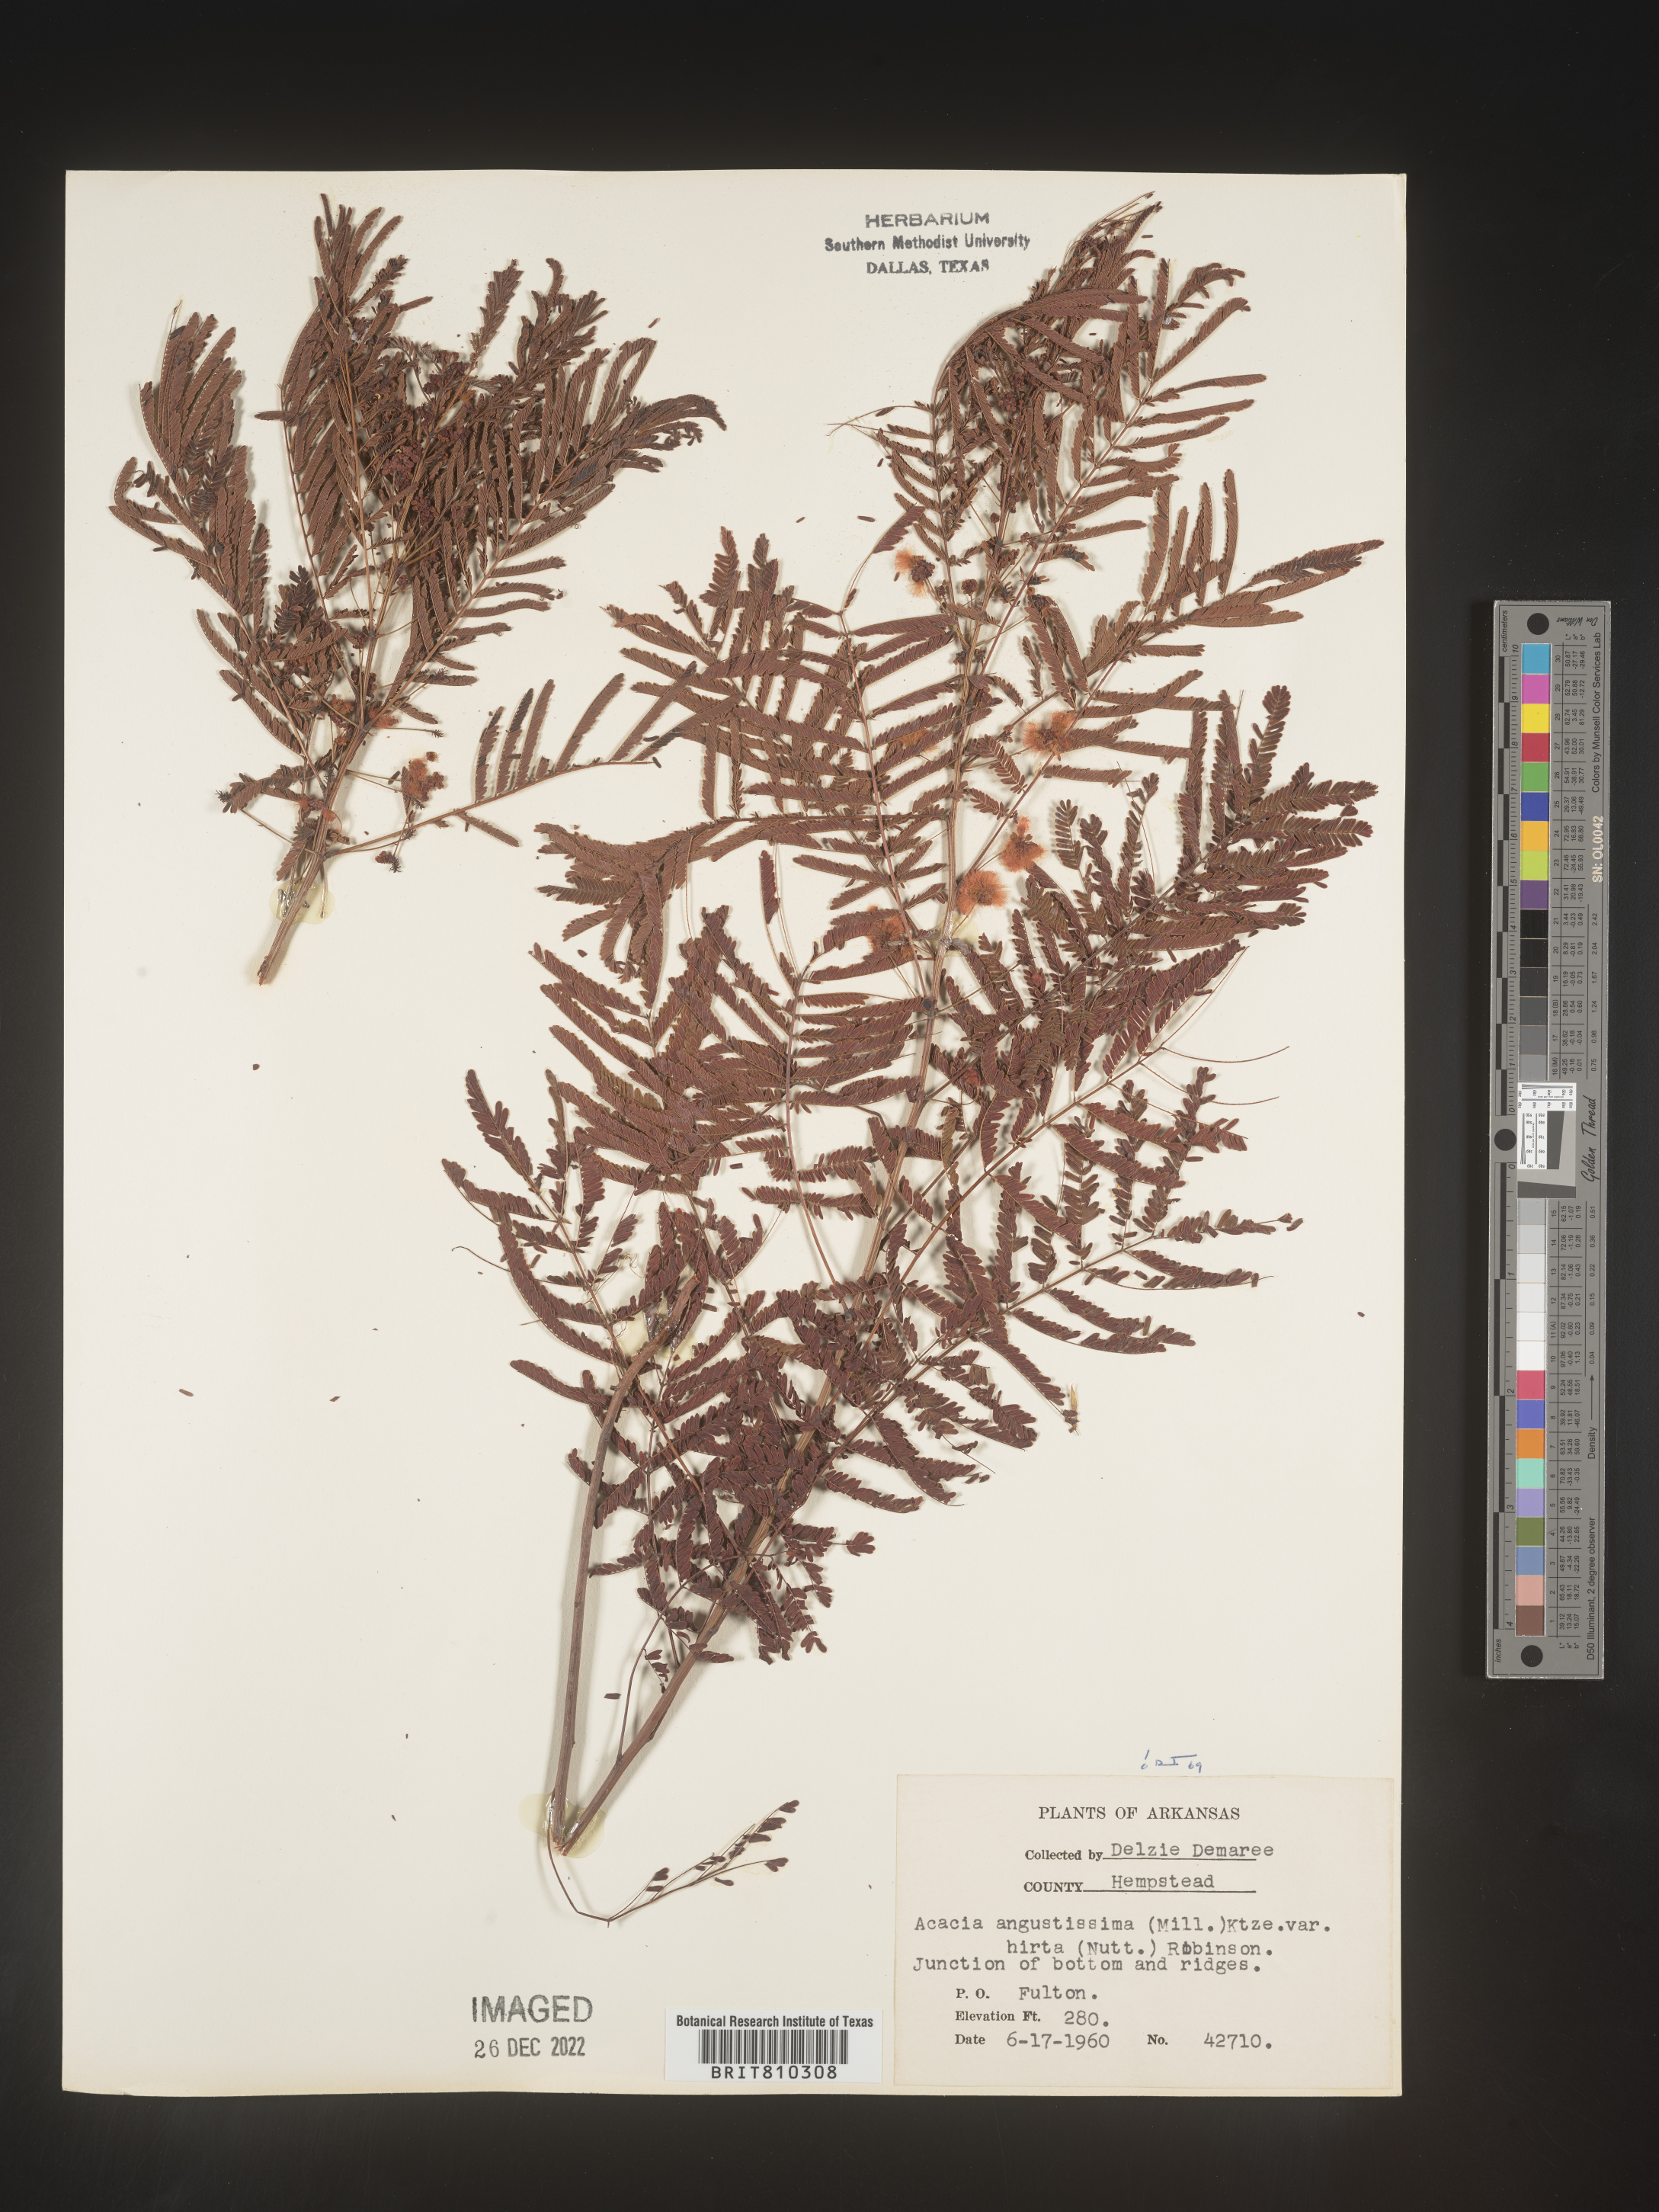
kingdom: Plantae
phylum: Tracheophyta
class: Magnoliopsida
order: Fabales
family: Fabaceae
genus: Acaciella
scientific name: Acaciella angustissima
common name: Prairie acacia
